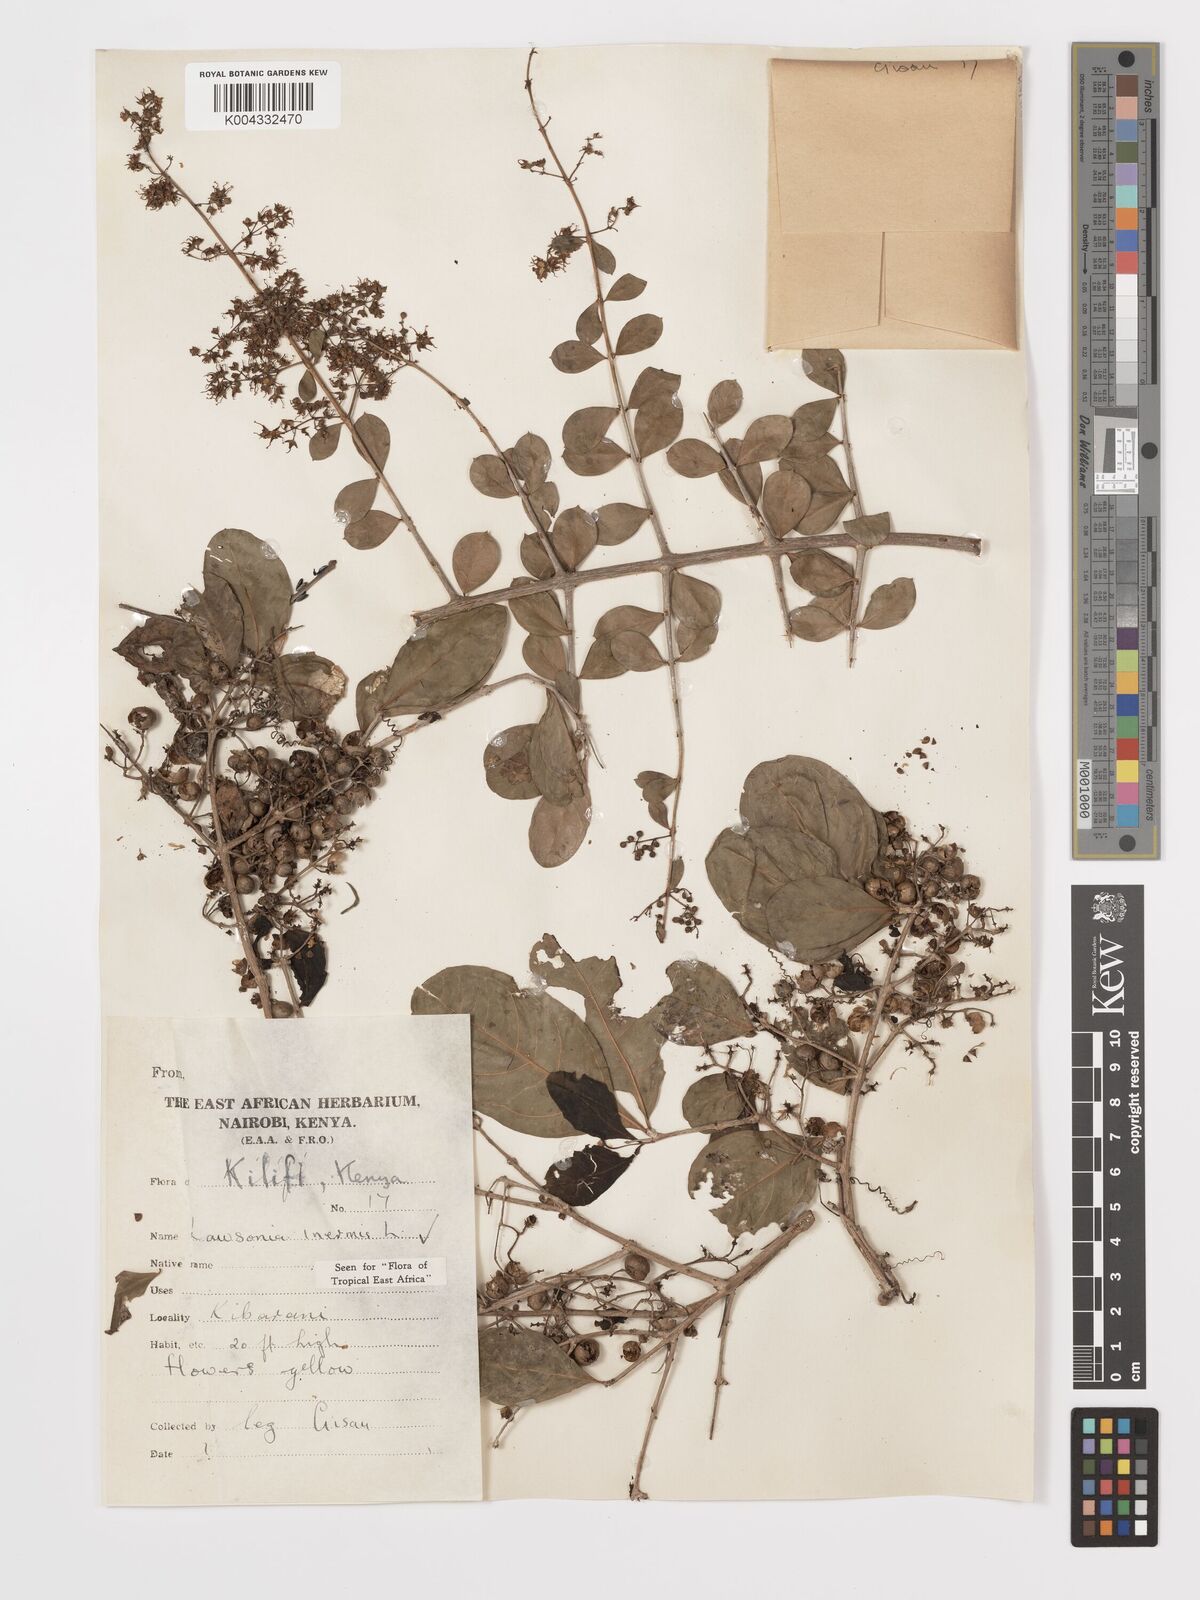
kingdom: Plantae
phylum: Tracheophyta
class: Magnoliopsida
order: Myrtales
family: Lythraceae
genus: Lawsonia
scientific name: Lawsonia inermis
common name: Henna
